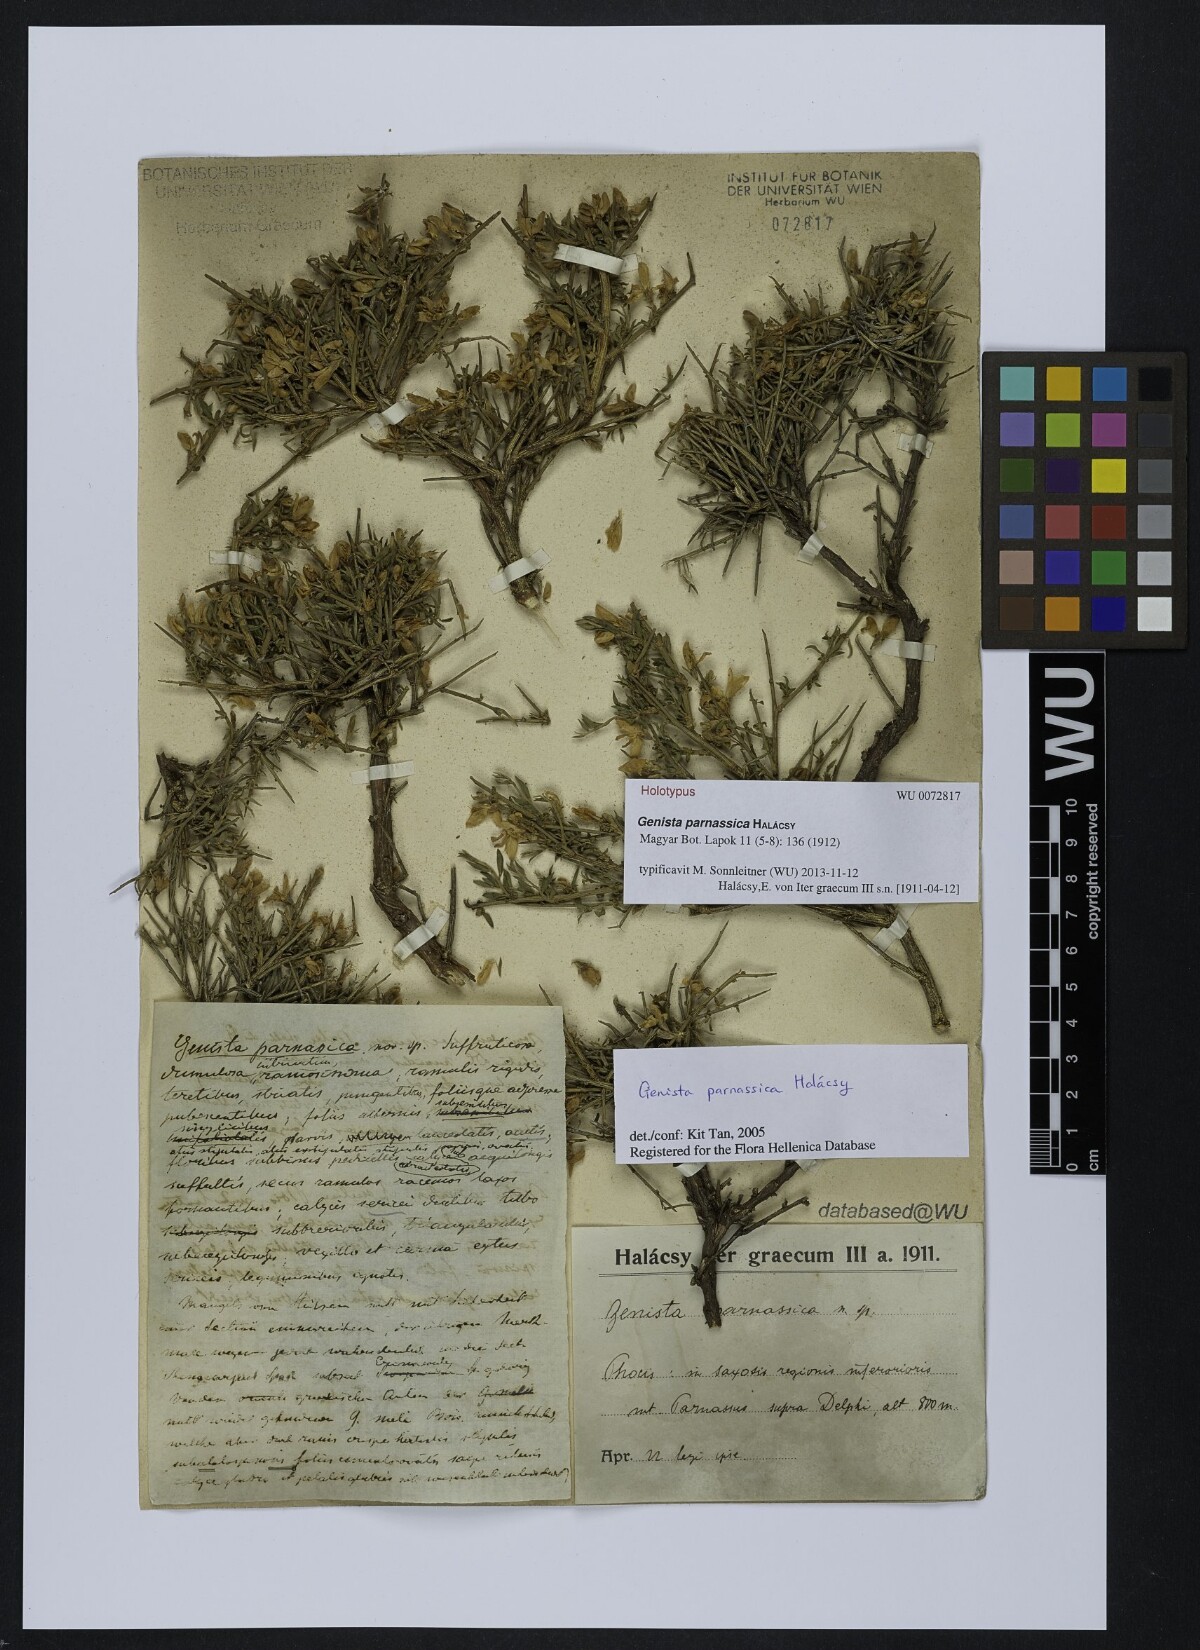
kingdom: Plantae
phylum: Tracheophyta
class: Magnoliopsida
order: Fabales
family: Fabaceae
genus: Genista
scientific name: Genista parnassica
